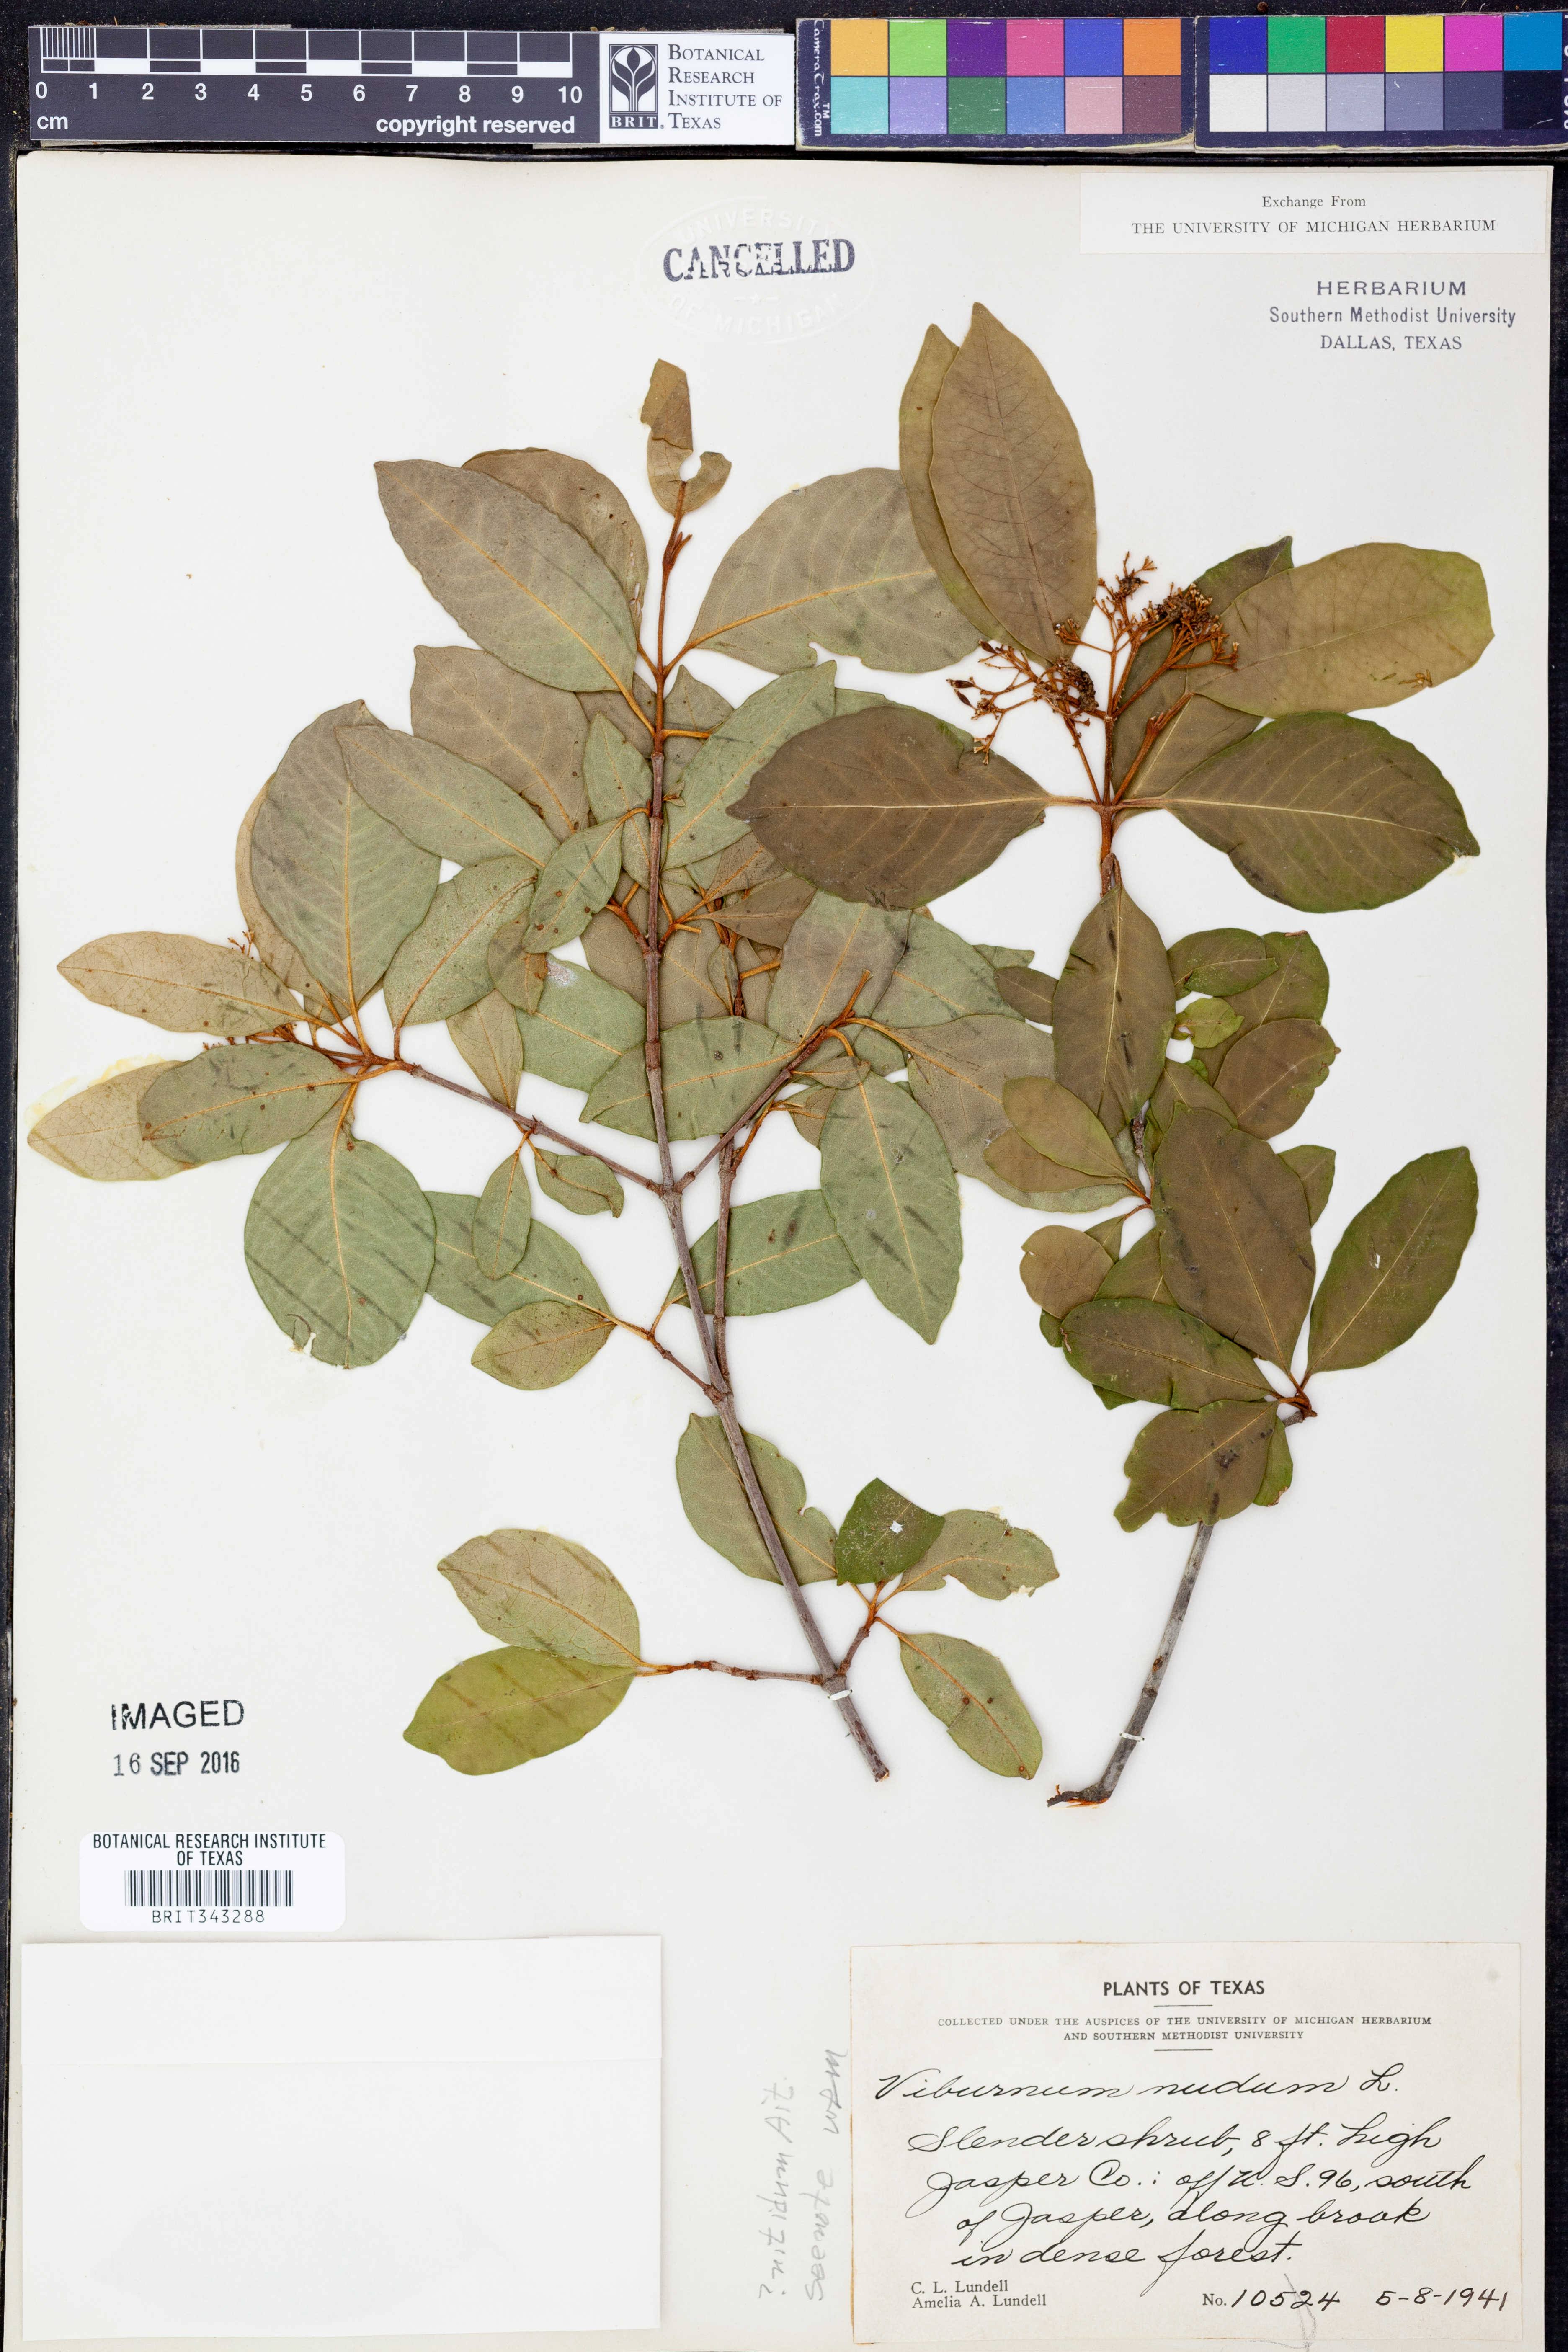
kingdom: Plantae
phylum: Tracheophyta
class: Magnoliopsida
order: Dipsacales
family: Viburnaceae
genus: Viburnum
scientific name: Viburnum nudum
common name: Possum haw
